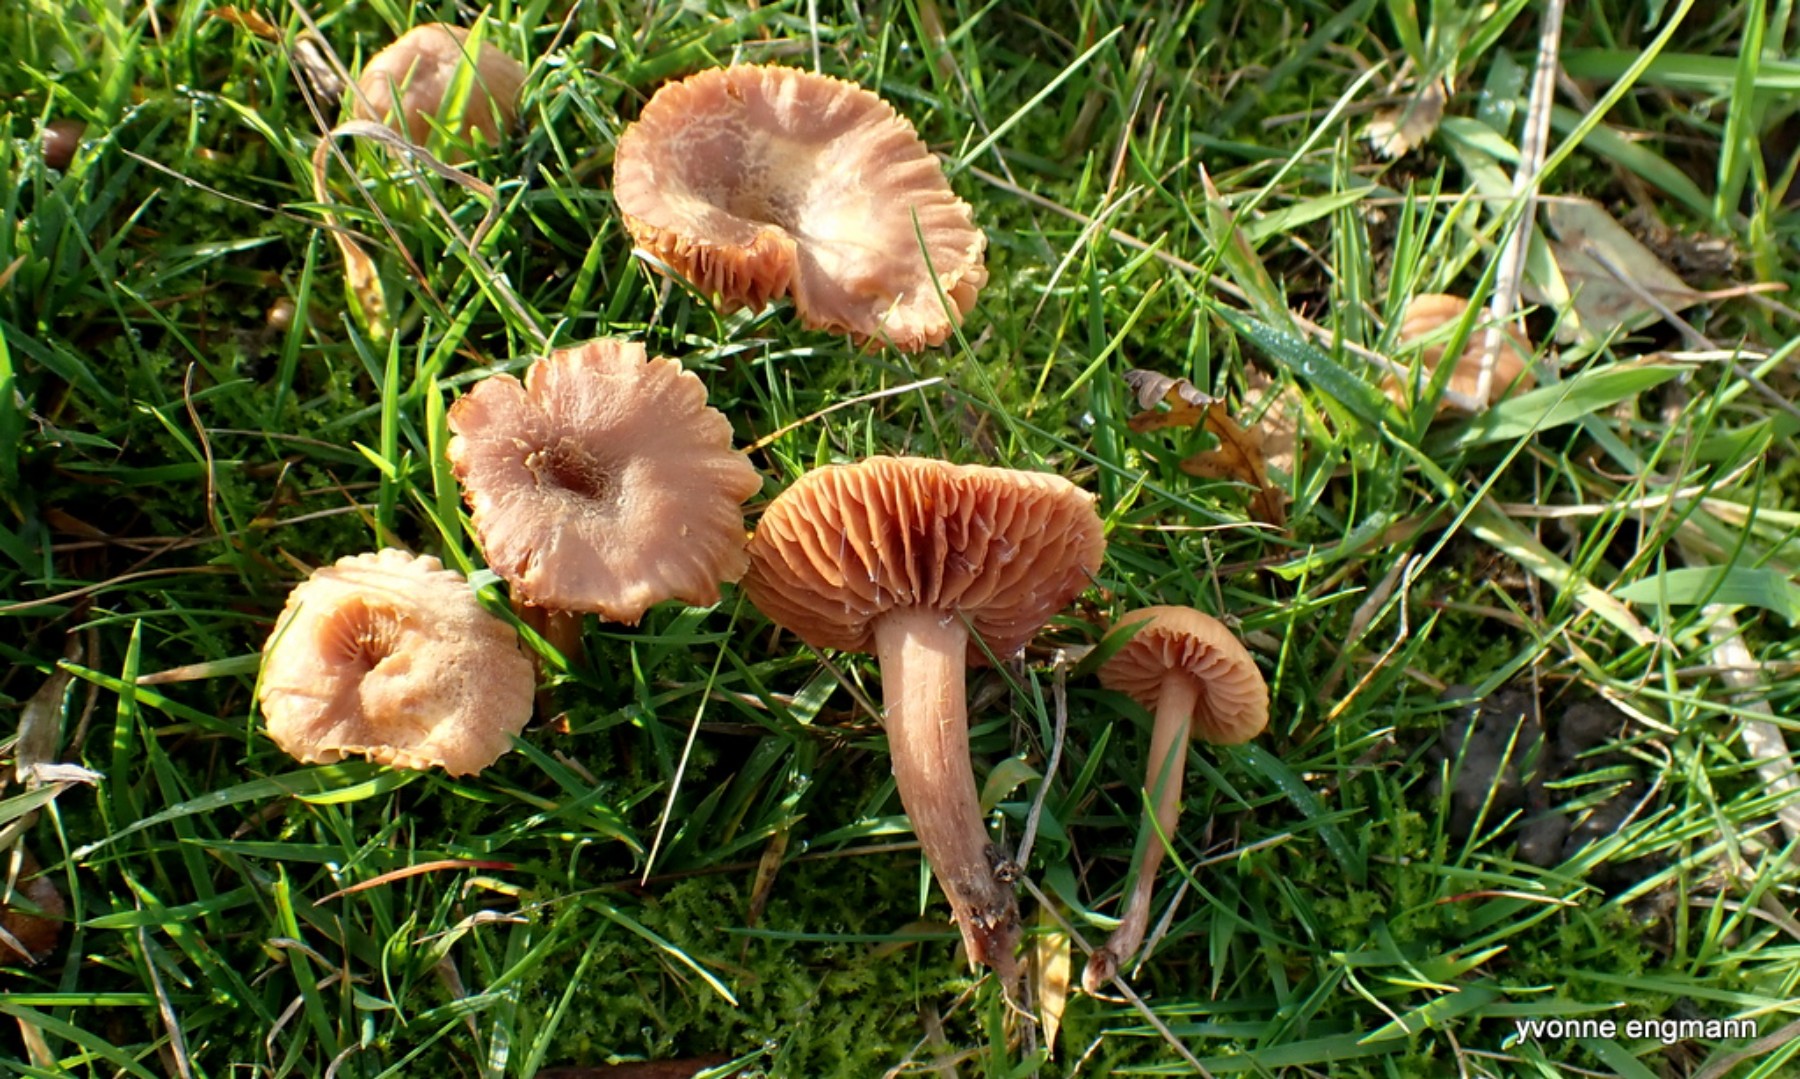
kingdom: Fungi
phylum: Basidiomycota
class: Agaricomycetes
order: Agaricales
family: Hydnangiaceae
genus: Laccaria
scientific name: Laccaria laccata
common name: rød ametysthat
